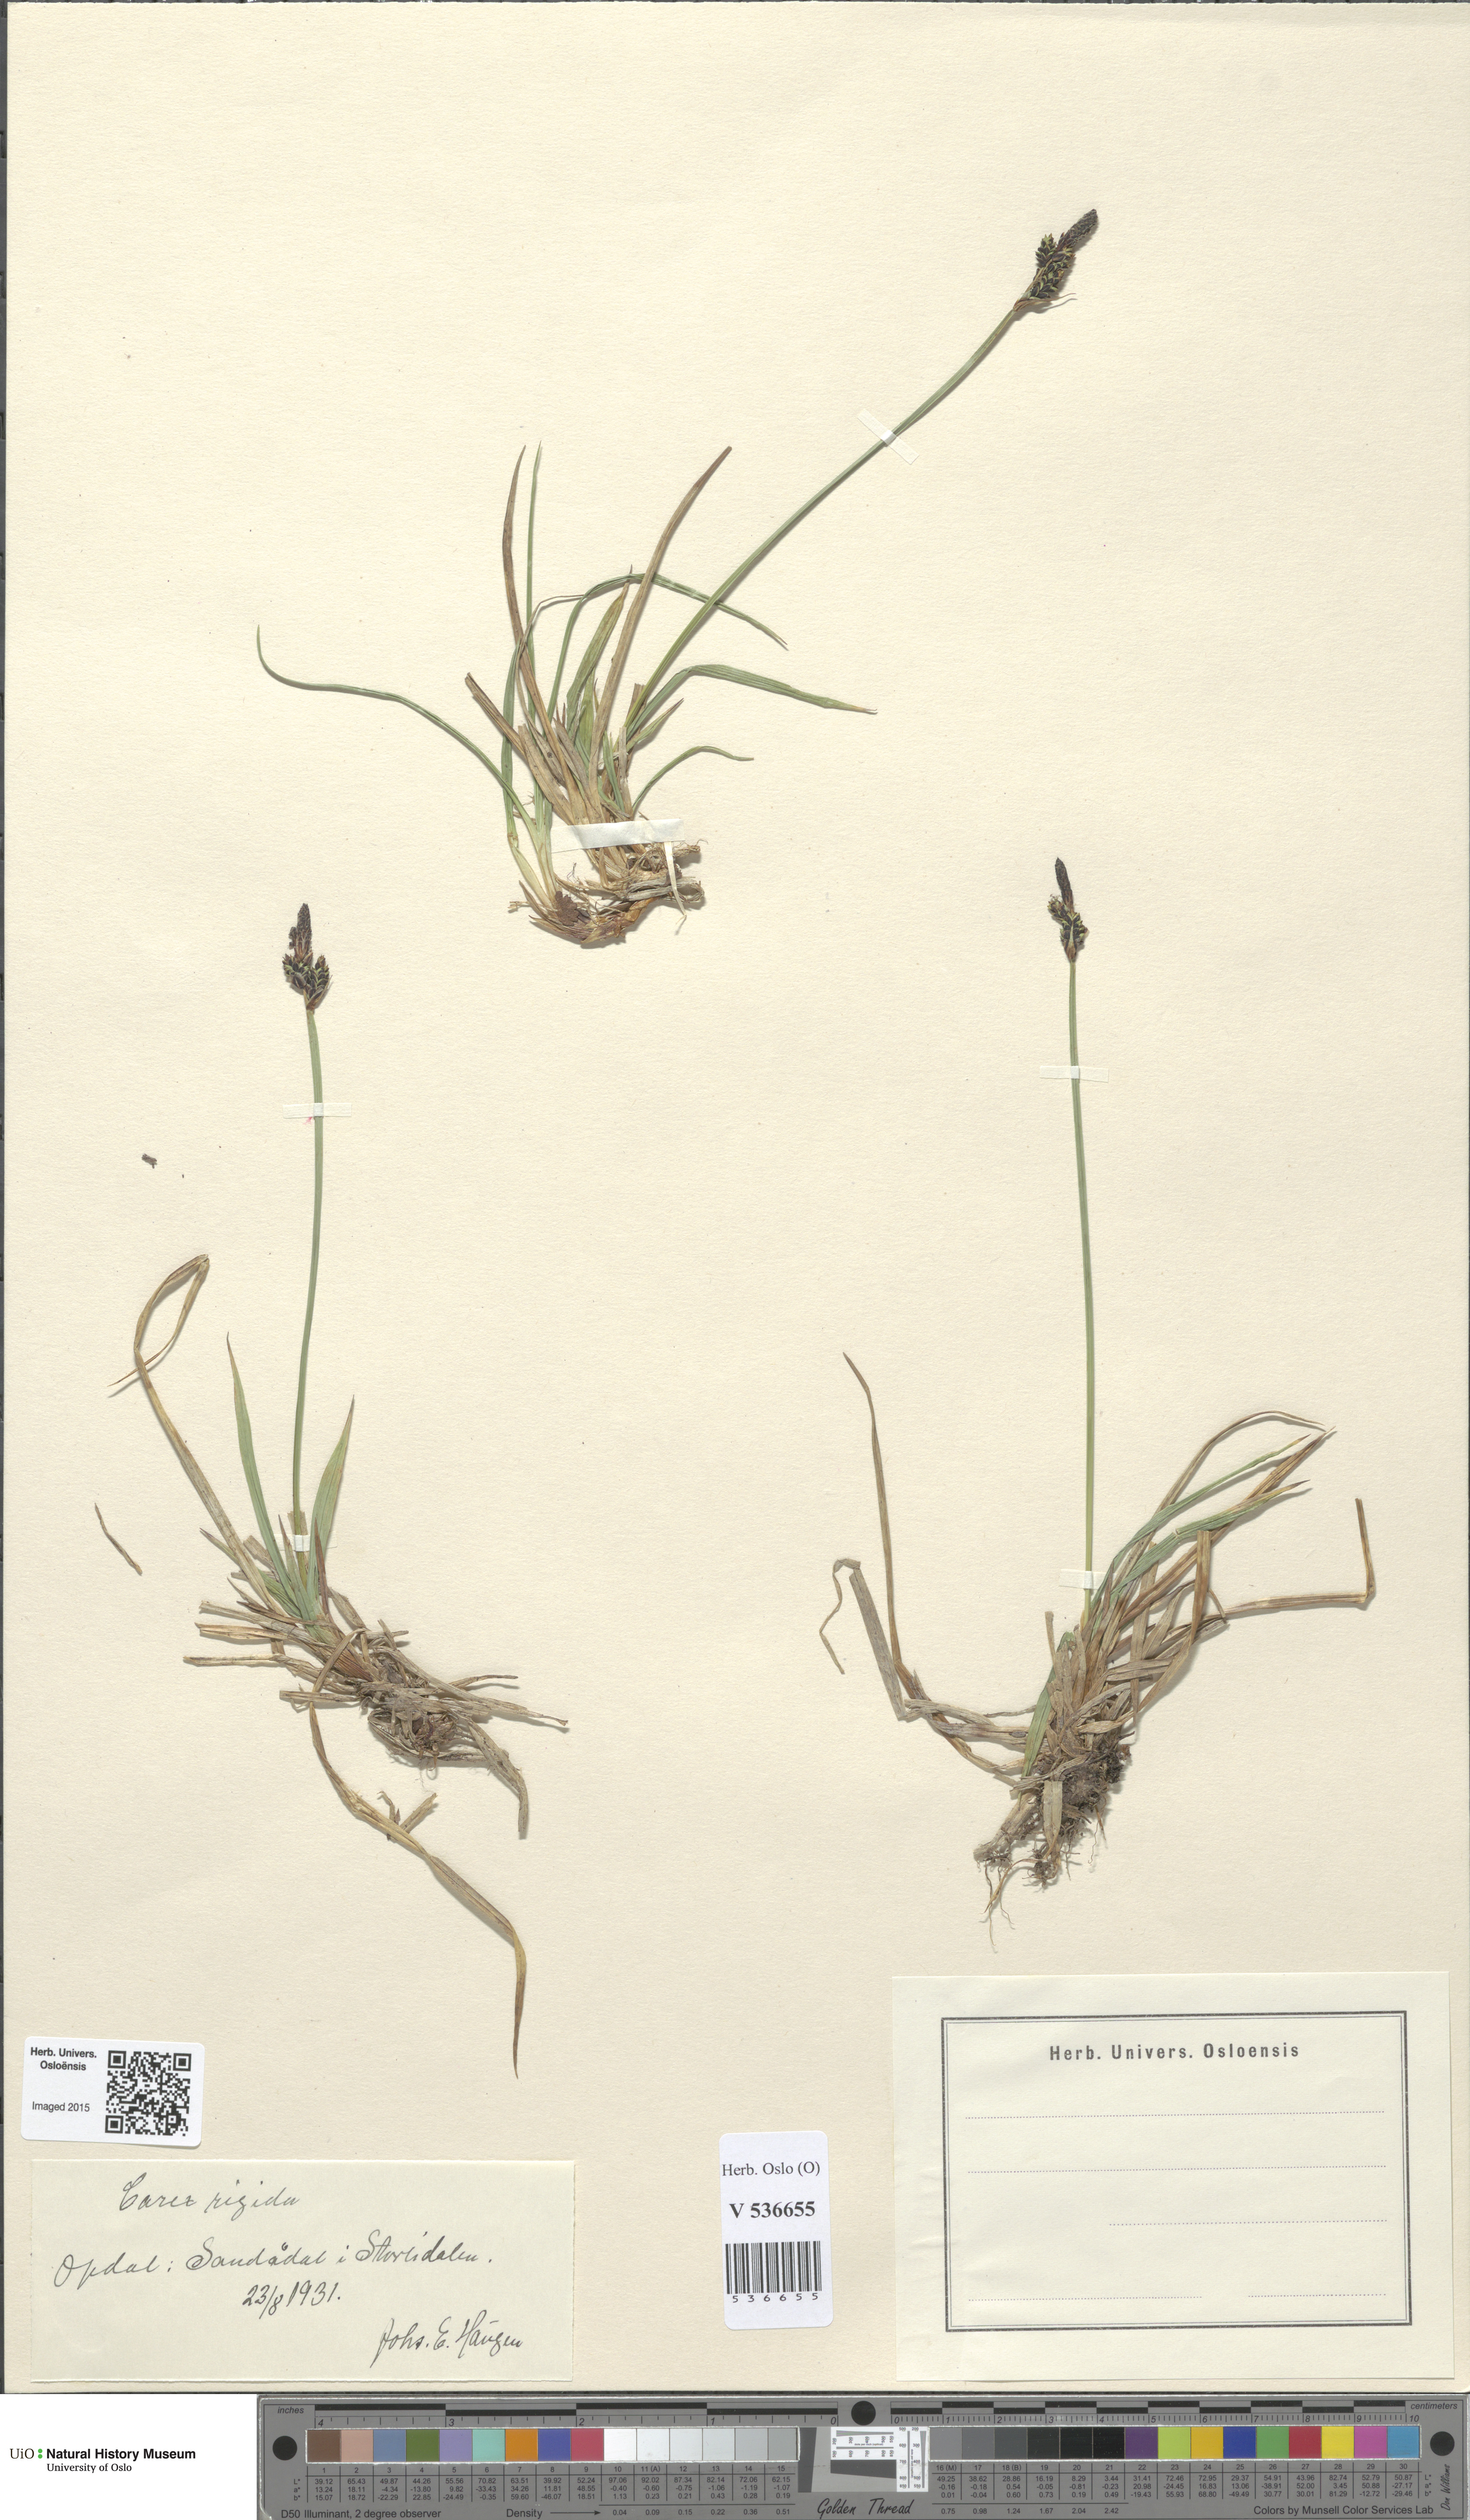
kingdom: Plantae
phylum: Tracheophyta
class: Liliopsida
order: Poales
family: Cyperaceae
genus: Carex
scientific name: Carex dacica
